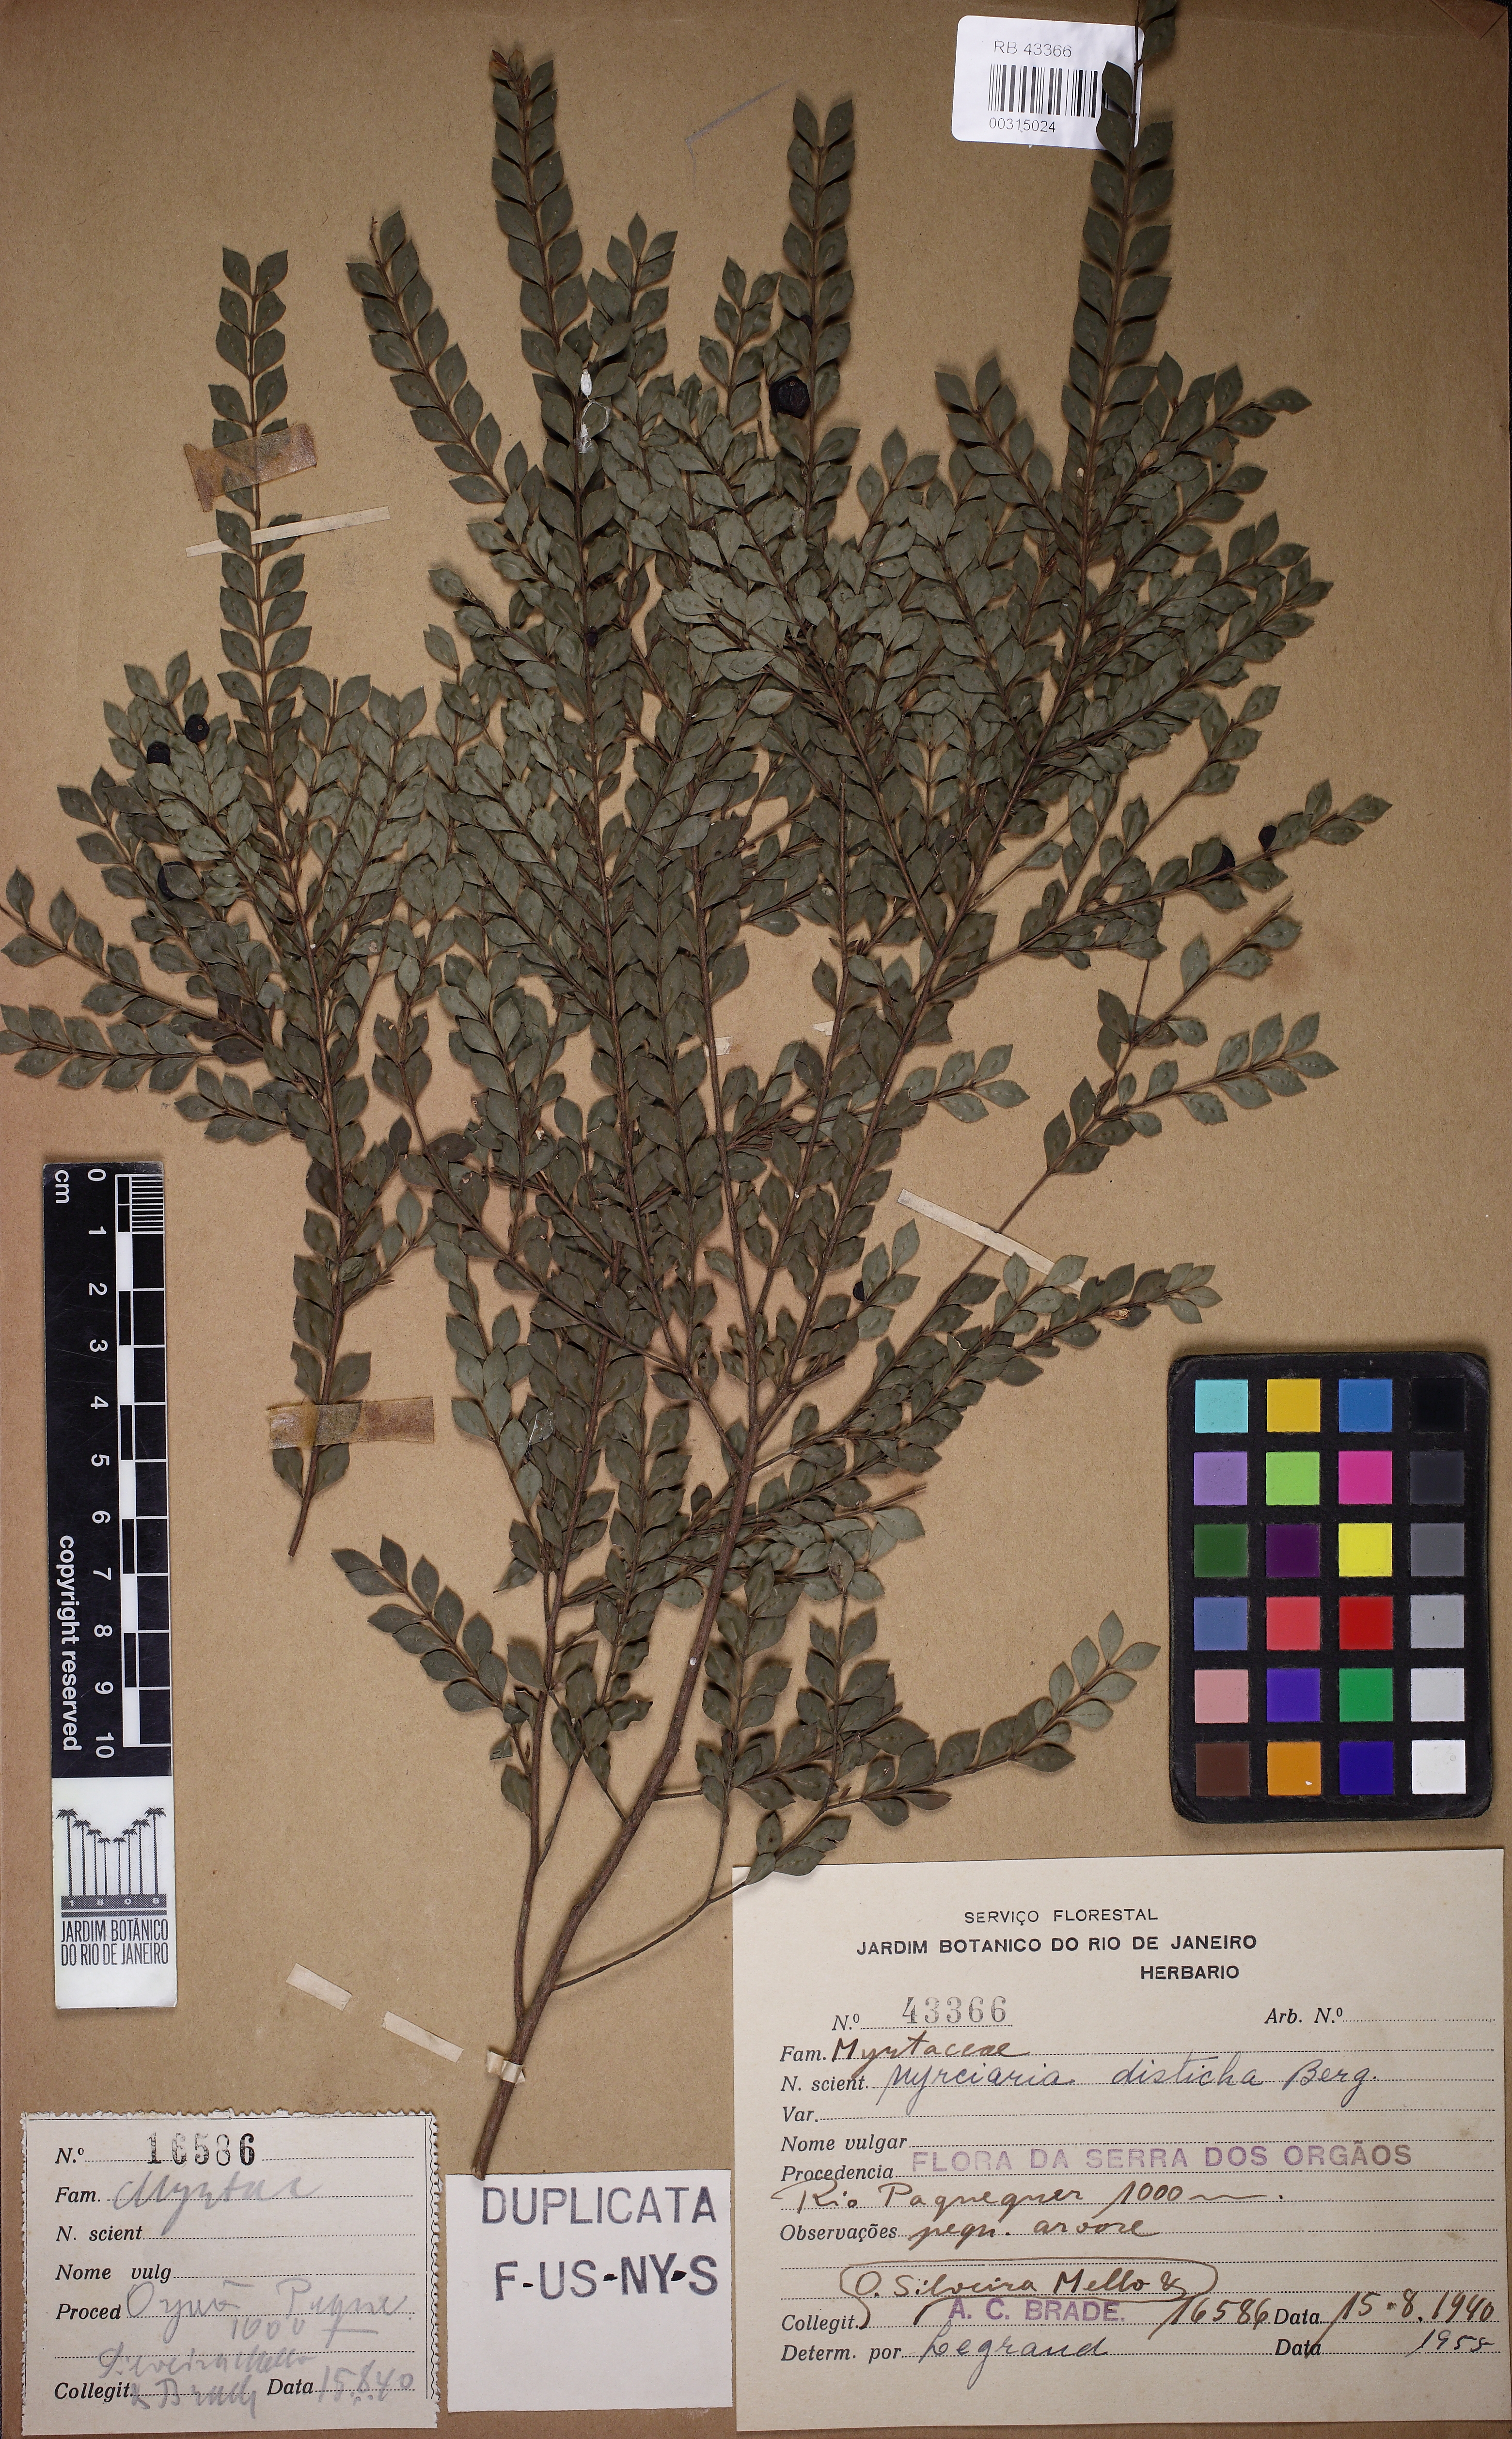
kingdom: Plantae
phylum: Tracheophyta
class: Magnoliopsida
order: Myrtales
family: Myrtaceae
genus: Myrciaria
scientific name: Myrciaria disticha
